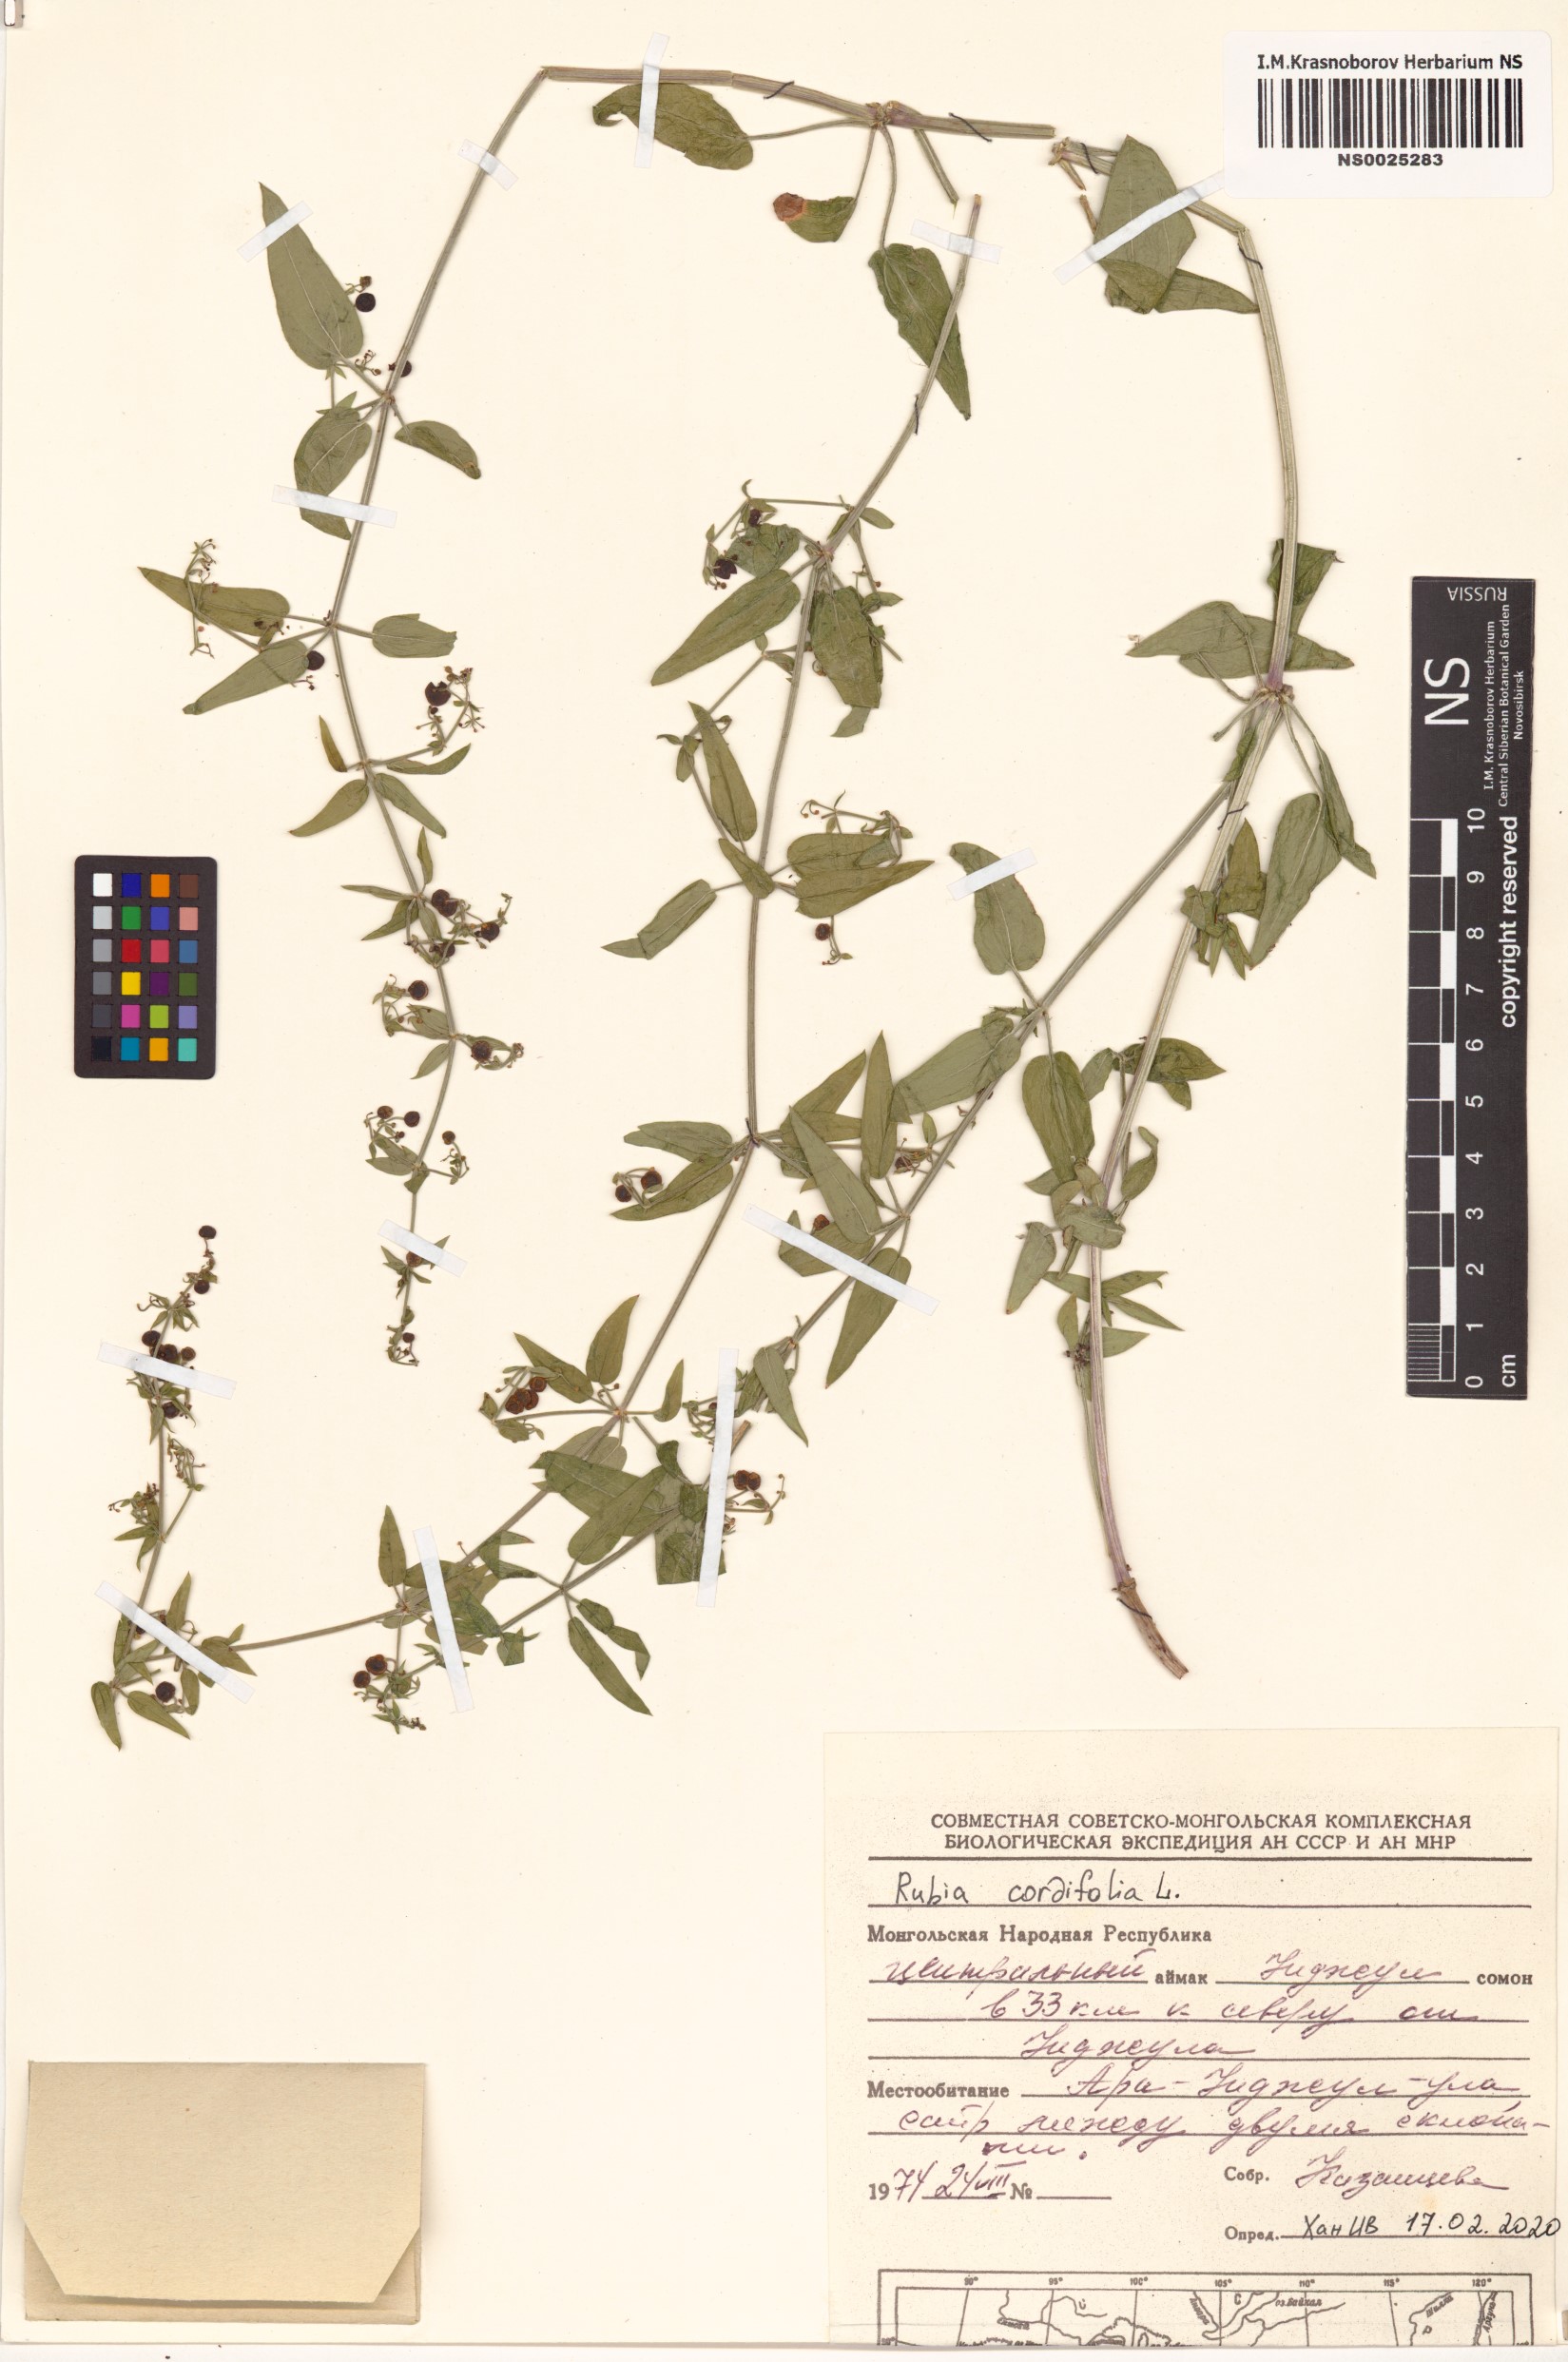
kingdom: Plantae
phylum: Tracheophyta
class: Magnoliopsida
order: Gentianales
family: Rubiaceae
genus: Rubia
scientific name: Rubia cordifolia
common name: Indian madder
